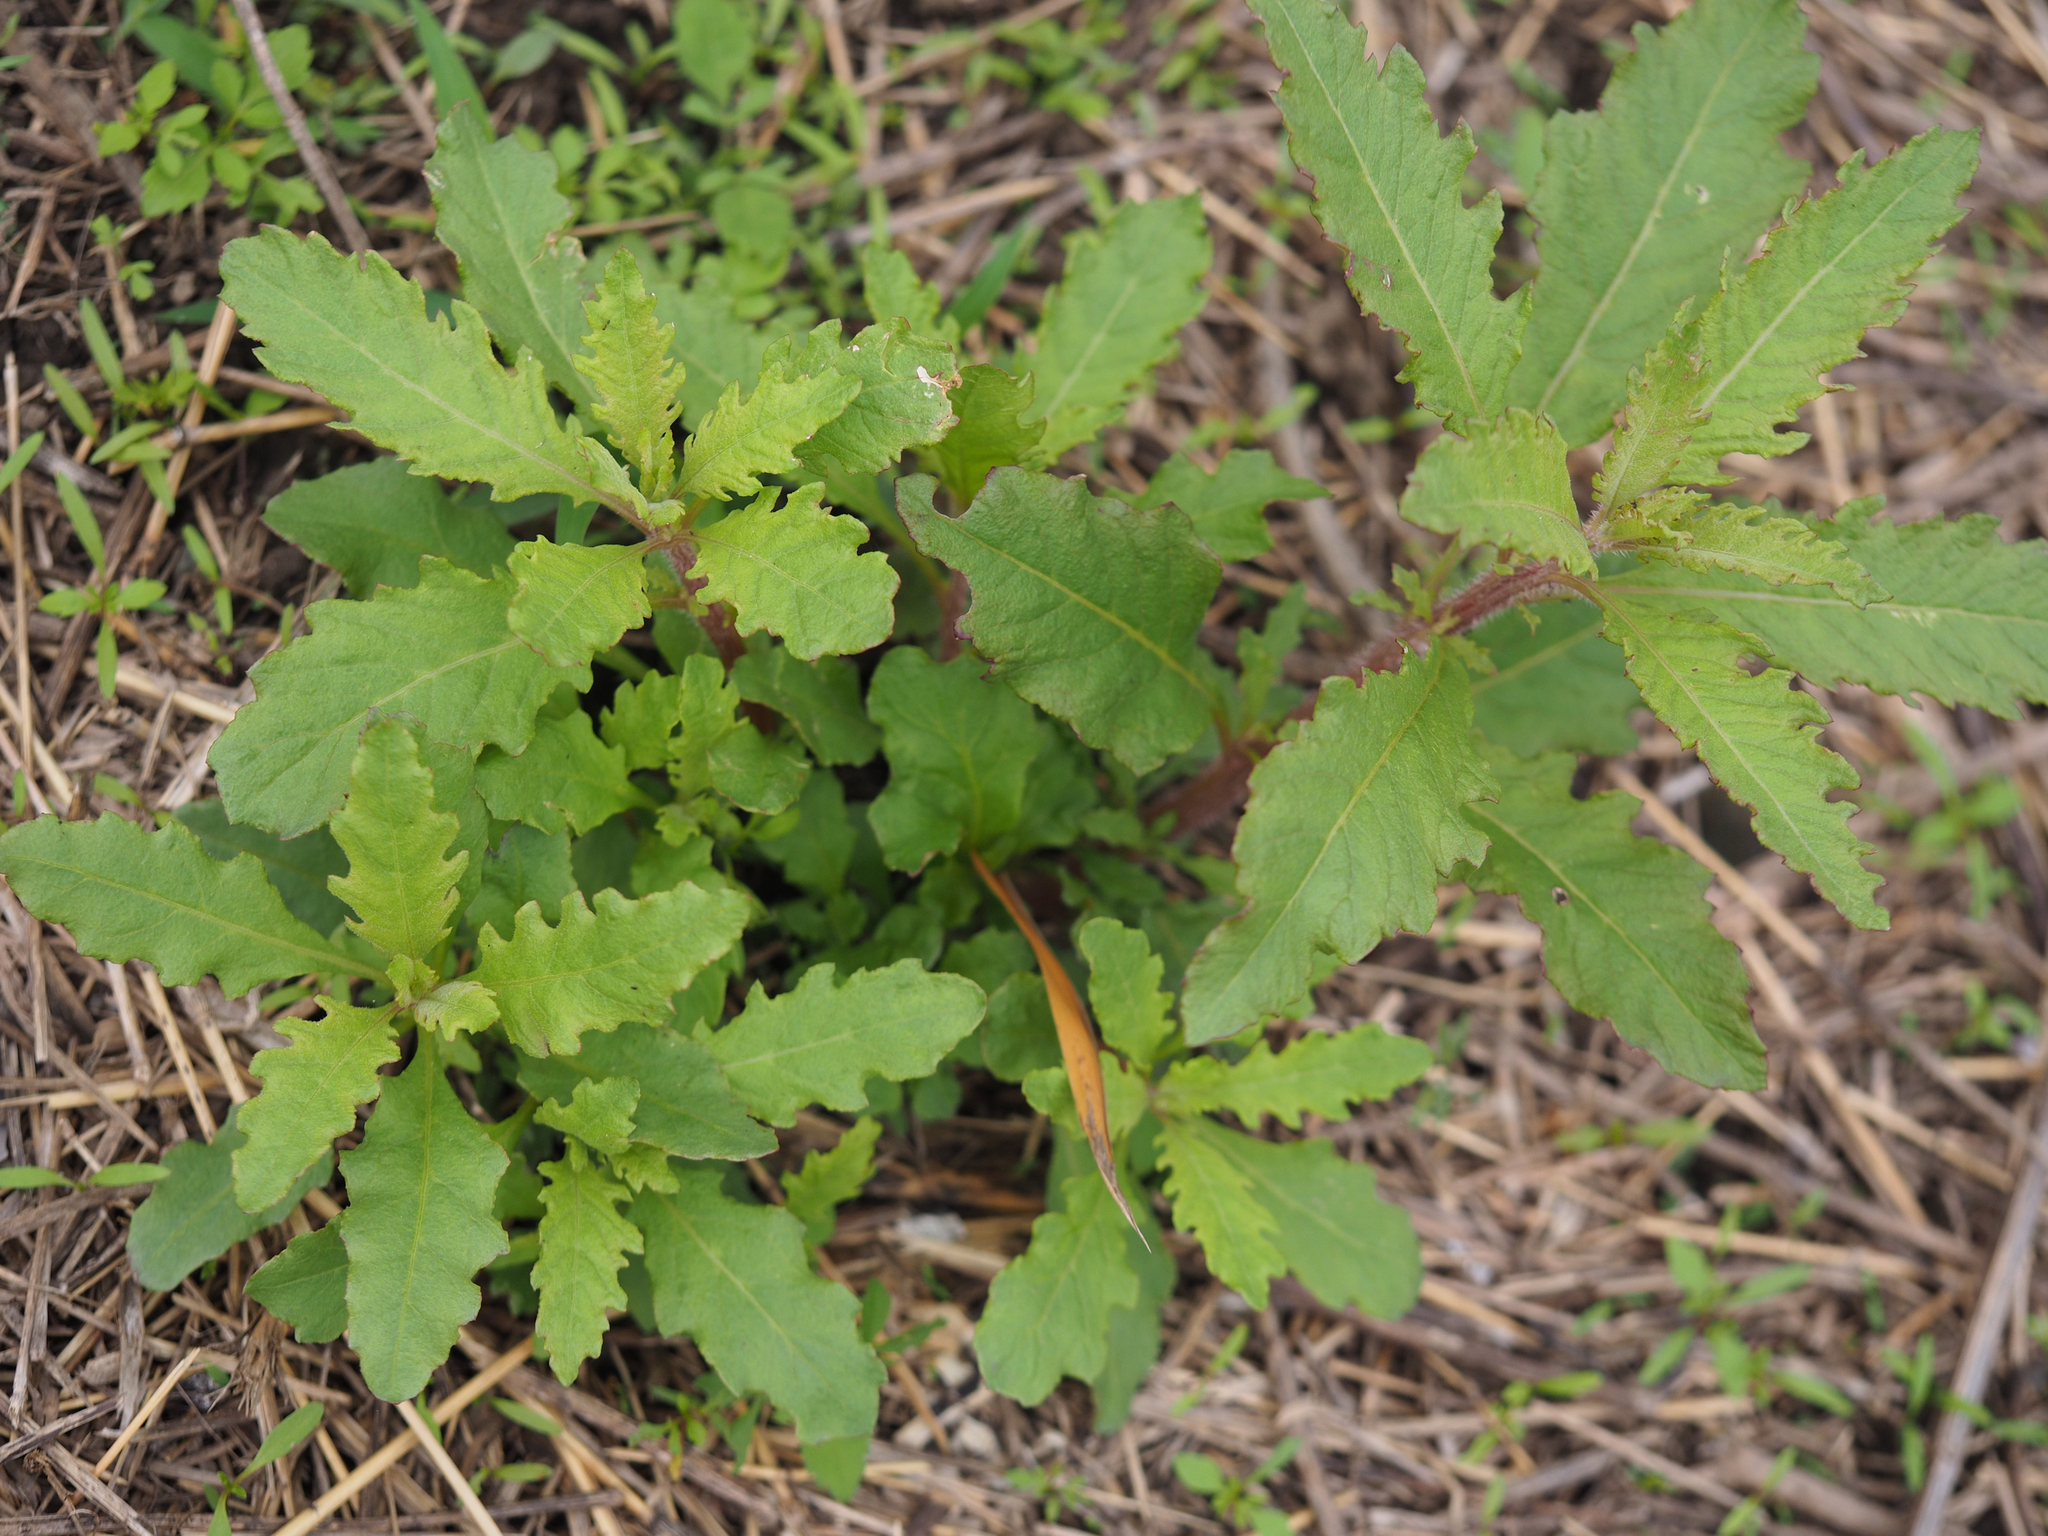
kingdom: Plantae
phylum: Tracheophyta
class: Magnoliopsida
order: Caryophyllales
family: Amaranthaceae
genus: Dysphania
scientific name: Dysphania ambrosioides
